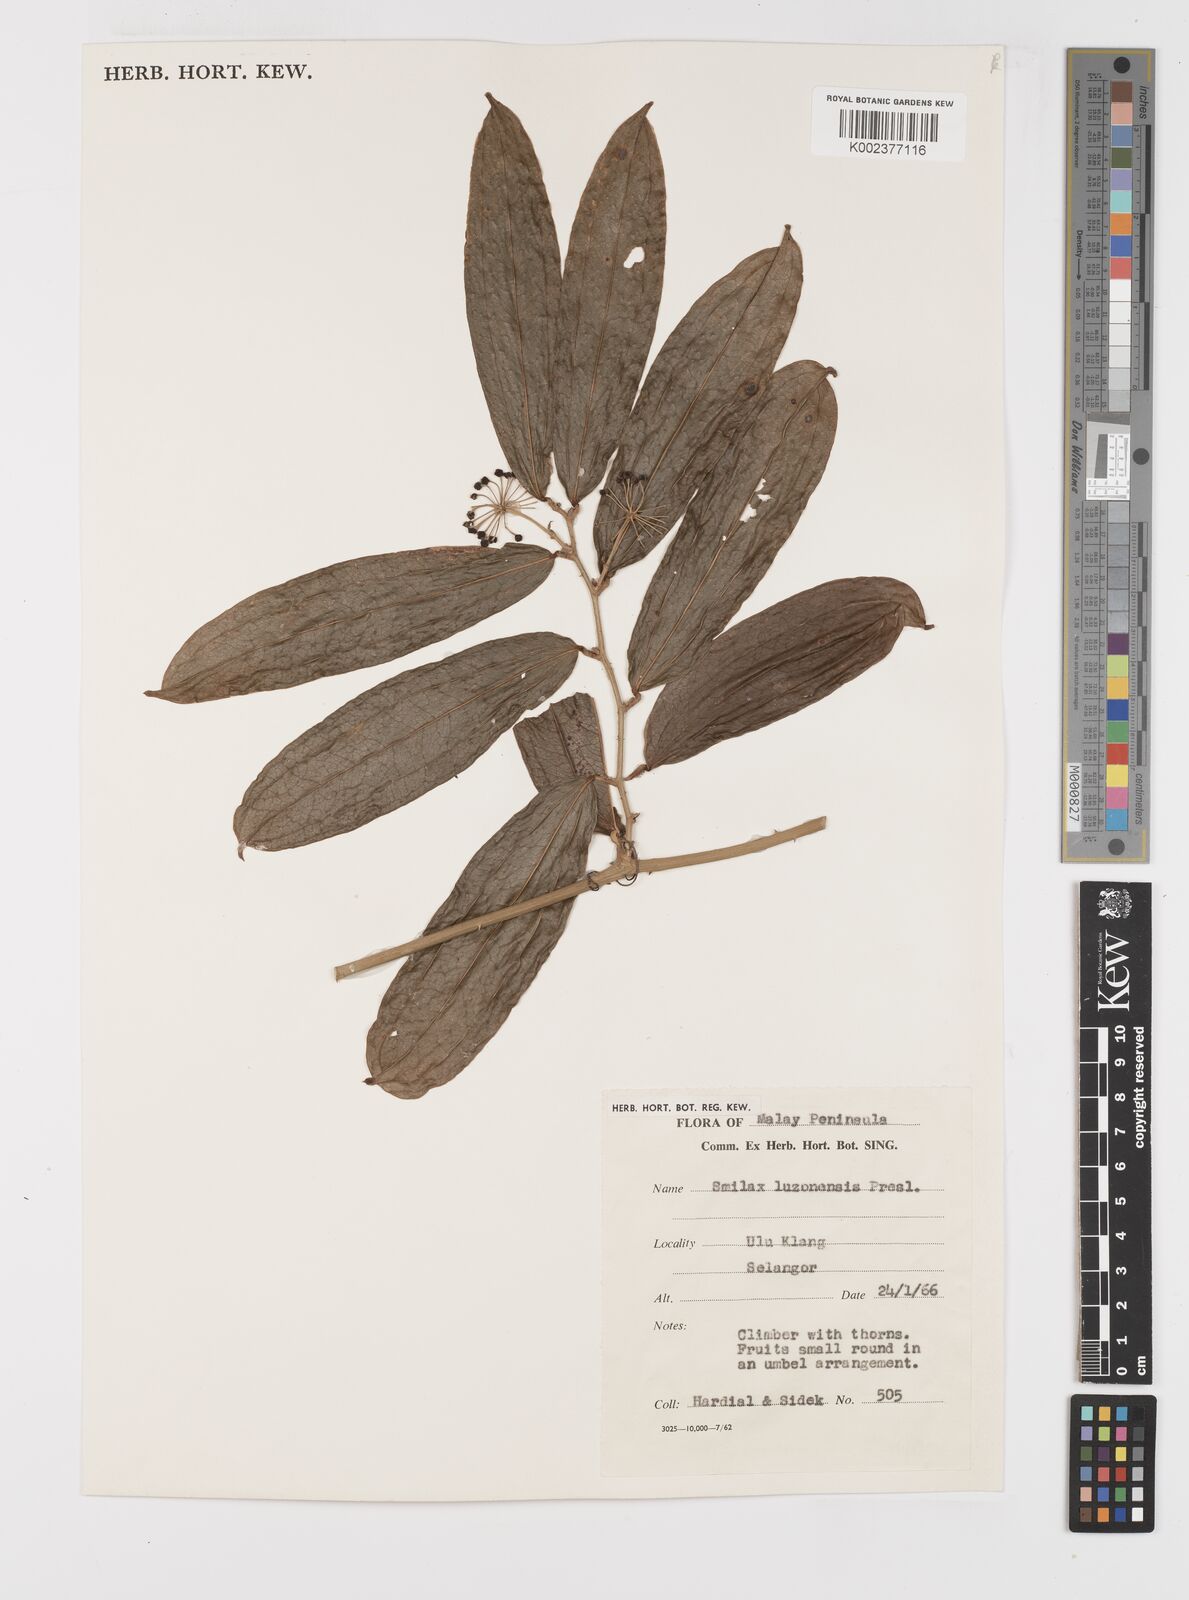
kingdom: Plantae
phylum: Tracheophyta
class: Liliopsida
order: Liliales
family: Smilacaceae
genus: Smilax
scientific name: Smilax luzonensis
